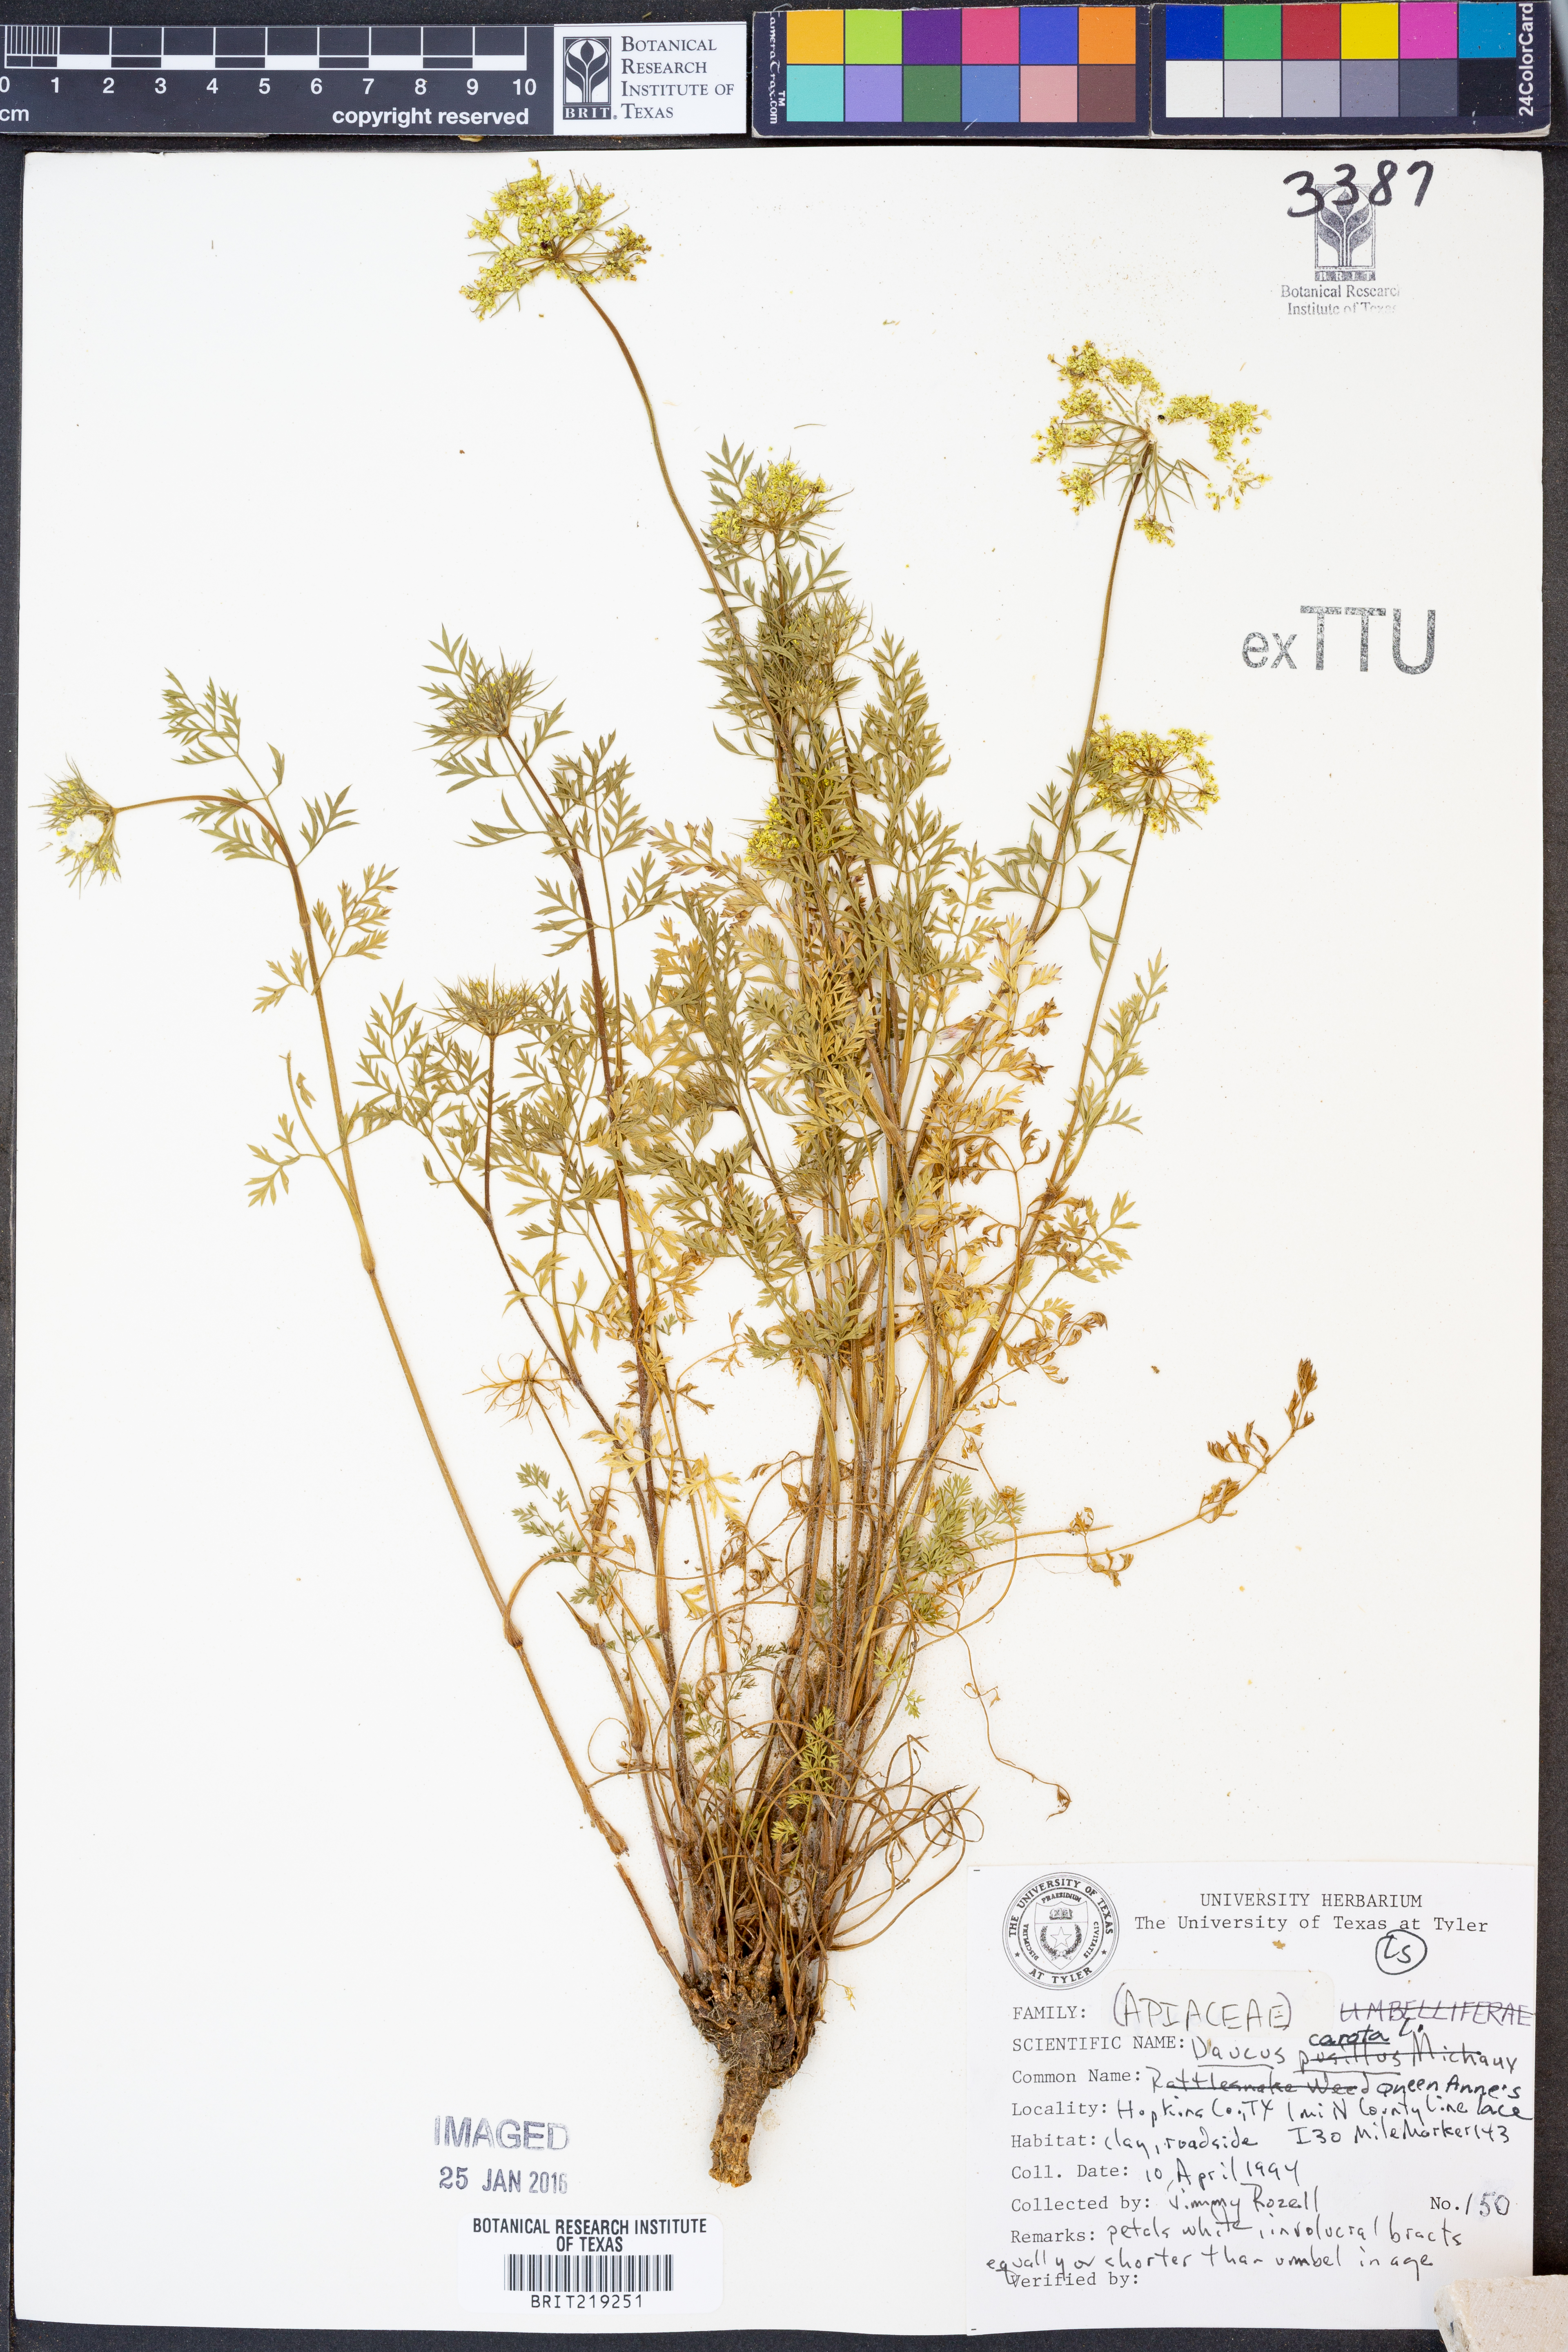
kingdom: Plantae
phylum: Tracheophyta
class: Magnoliopsida
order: Apiales
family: Apiaceae
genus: Daucus
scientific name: Daucus carota
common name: Wild carrot
